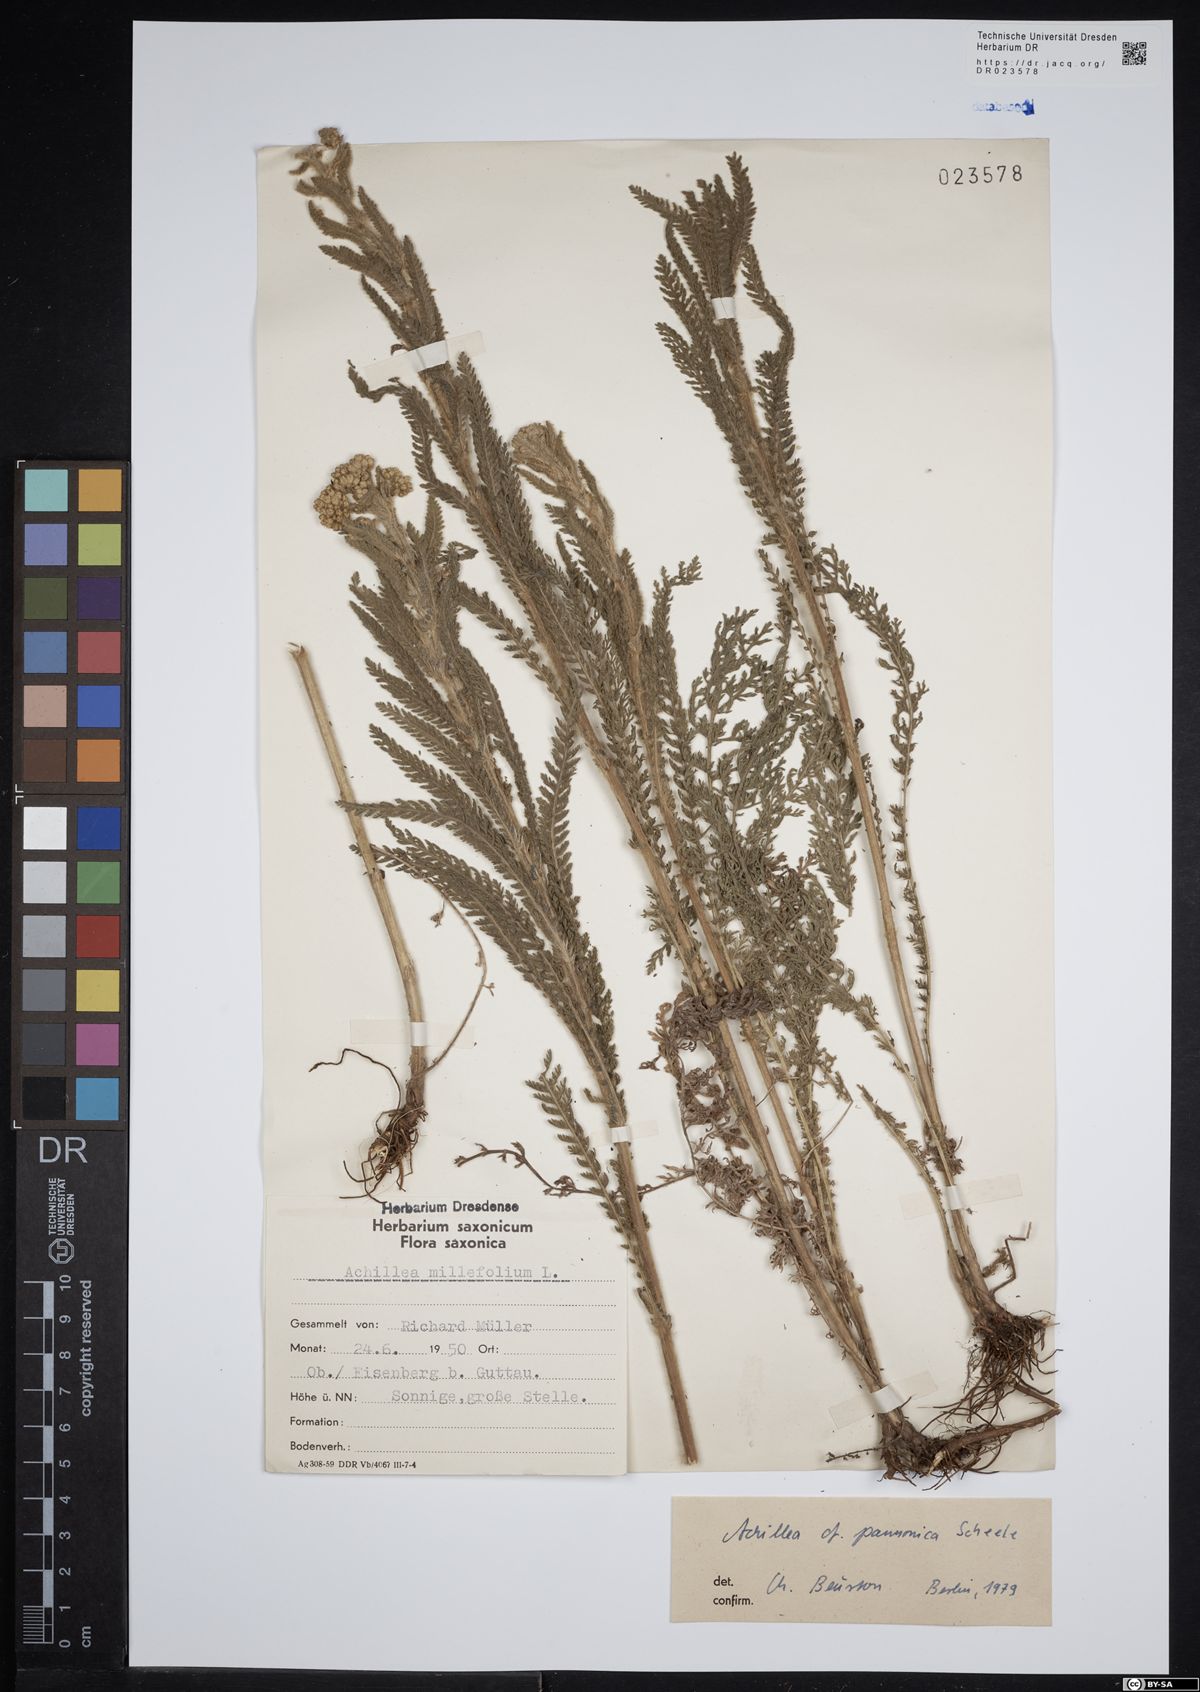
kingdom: Plantae
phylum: Tracheophyta
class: Magnoliopsida
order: Asterales
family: Asteraceae
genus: Achillea
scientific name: Achillea pannonica
